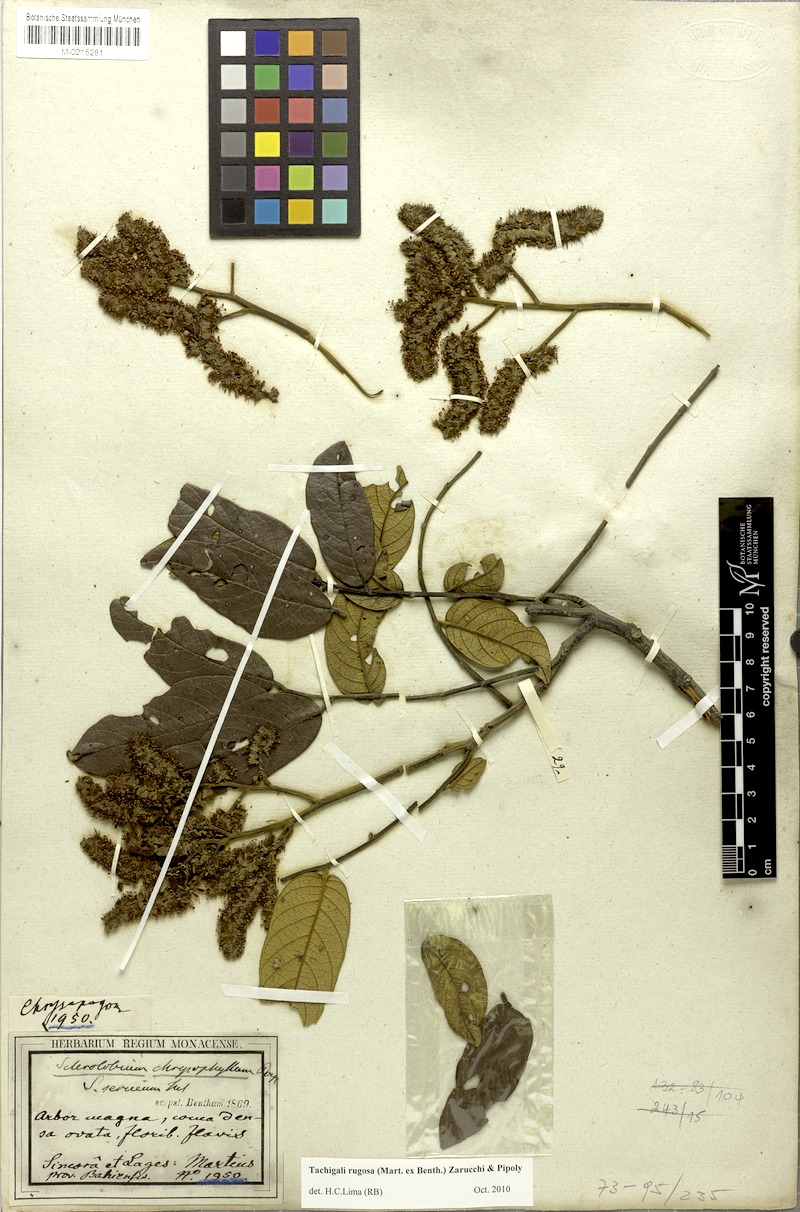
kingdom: Plantae
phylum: Tracheophyta
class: Magnoliopsida
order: Fabales
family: Fabaceae
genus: Tachigali
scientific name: Tachigali rugosa
